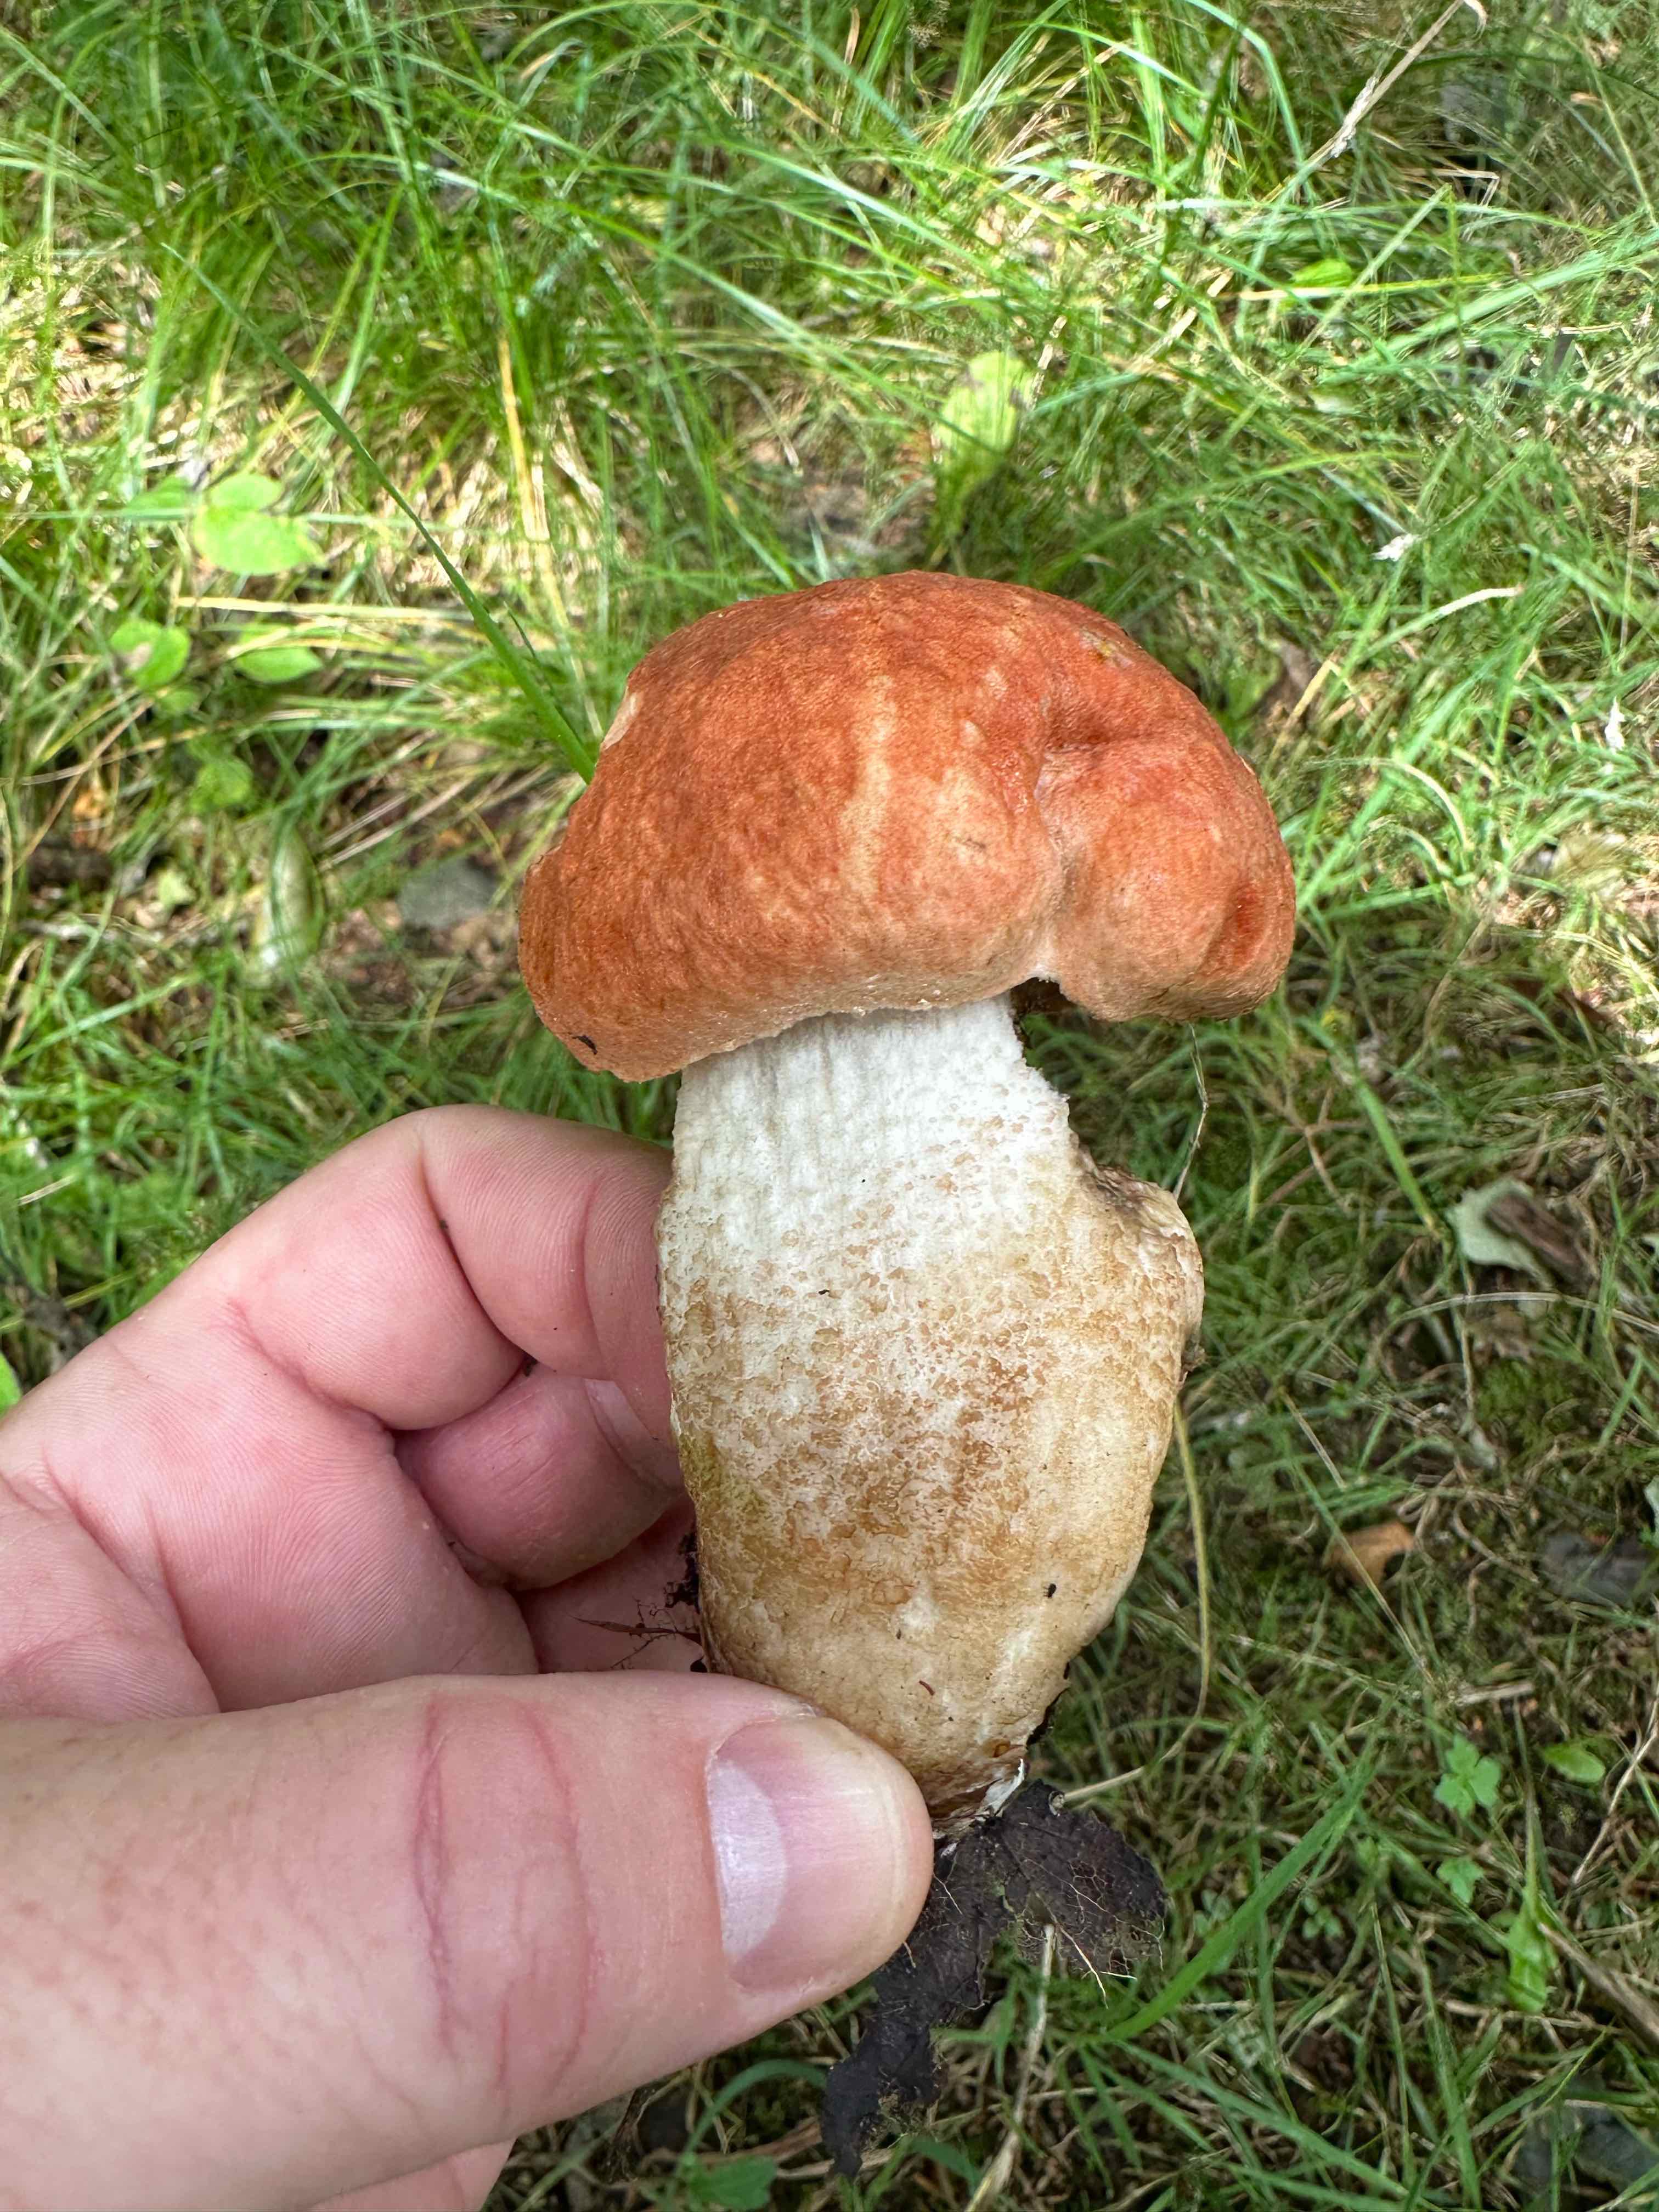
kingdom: Fungi
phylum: Basidiomycota
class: Agaricomycetes
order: Boletales
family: Boletaceae
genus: Leccinum
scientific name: Leccinum
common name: skælrørhat
